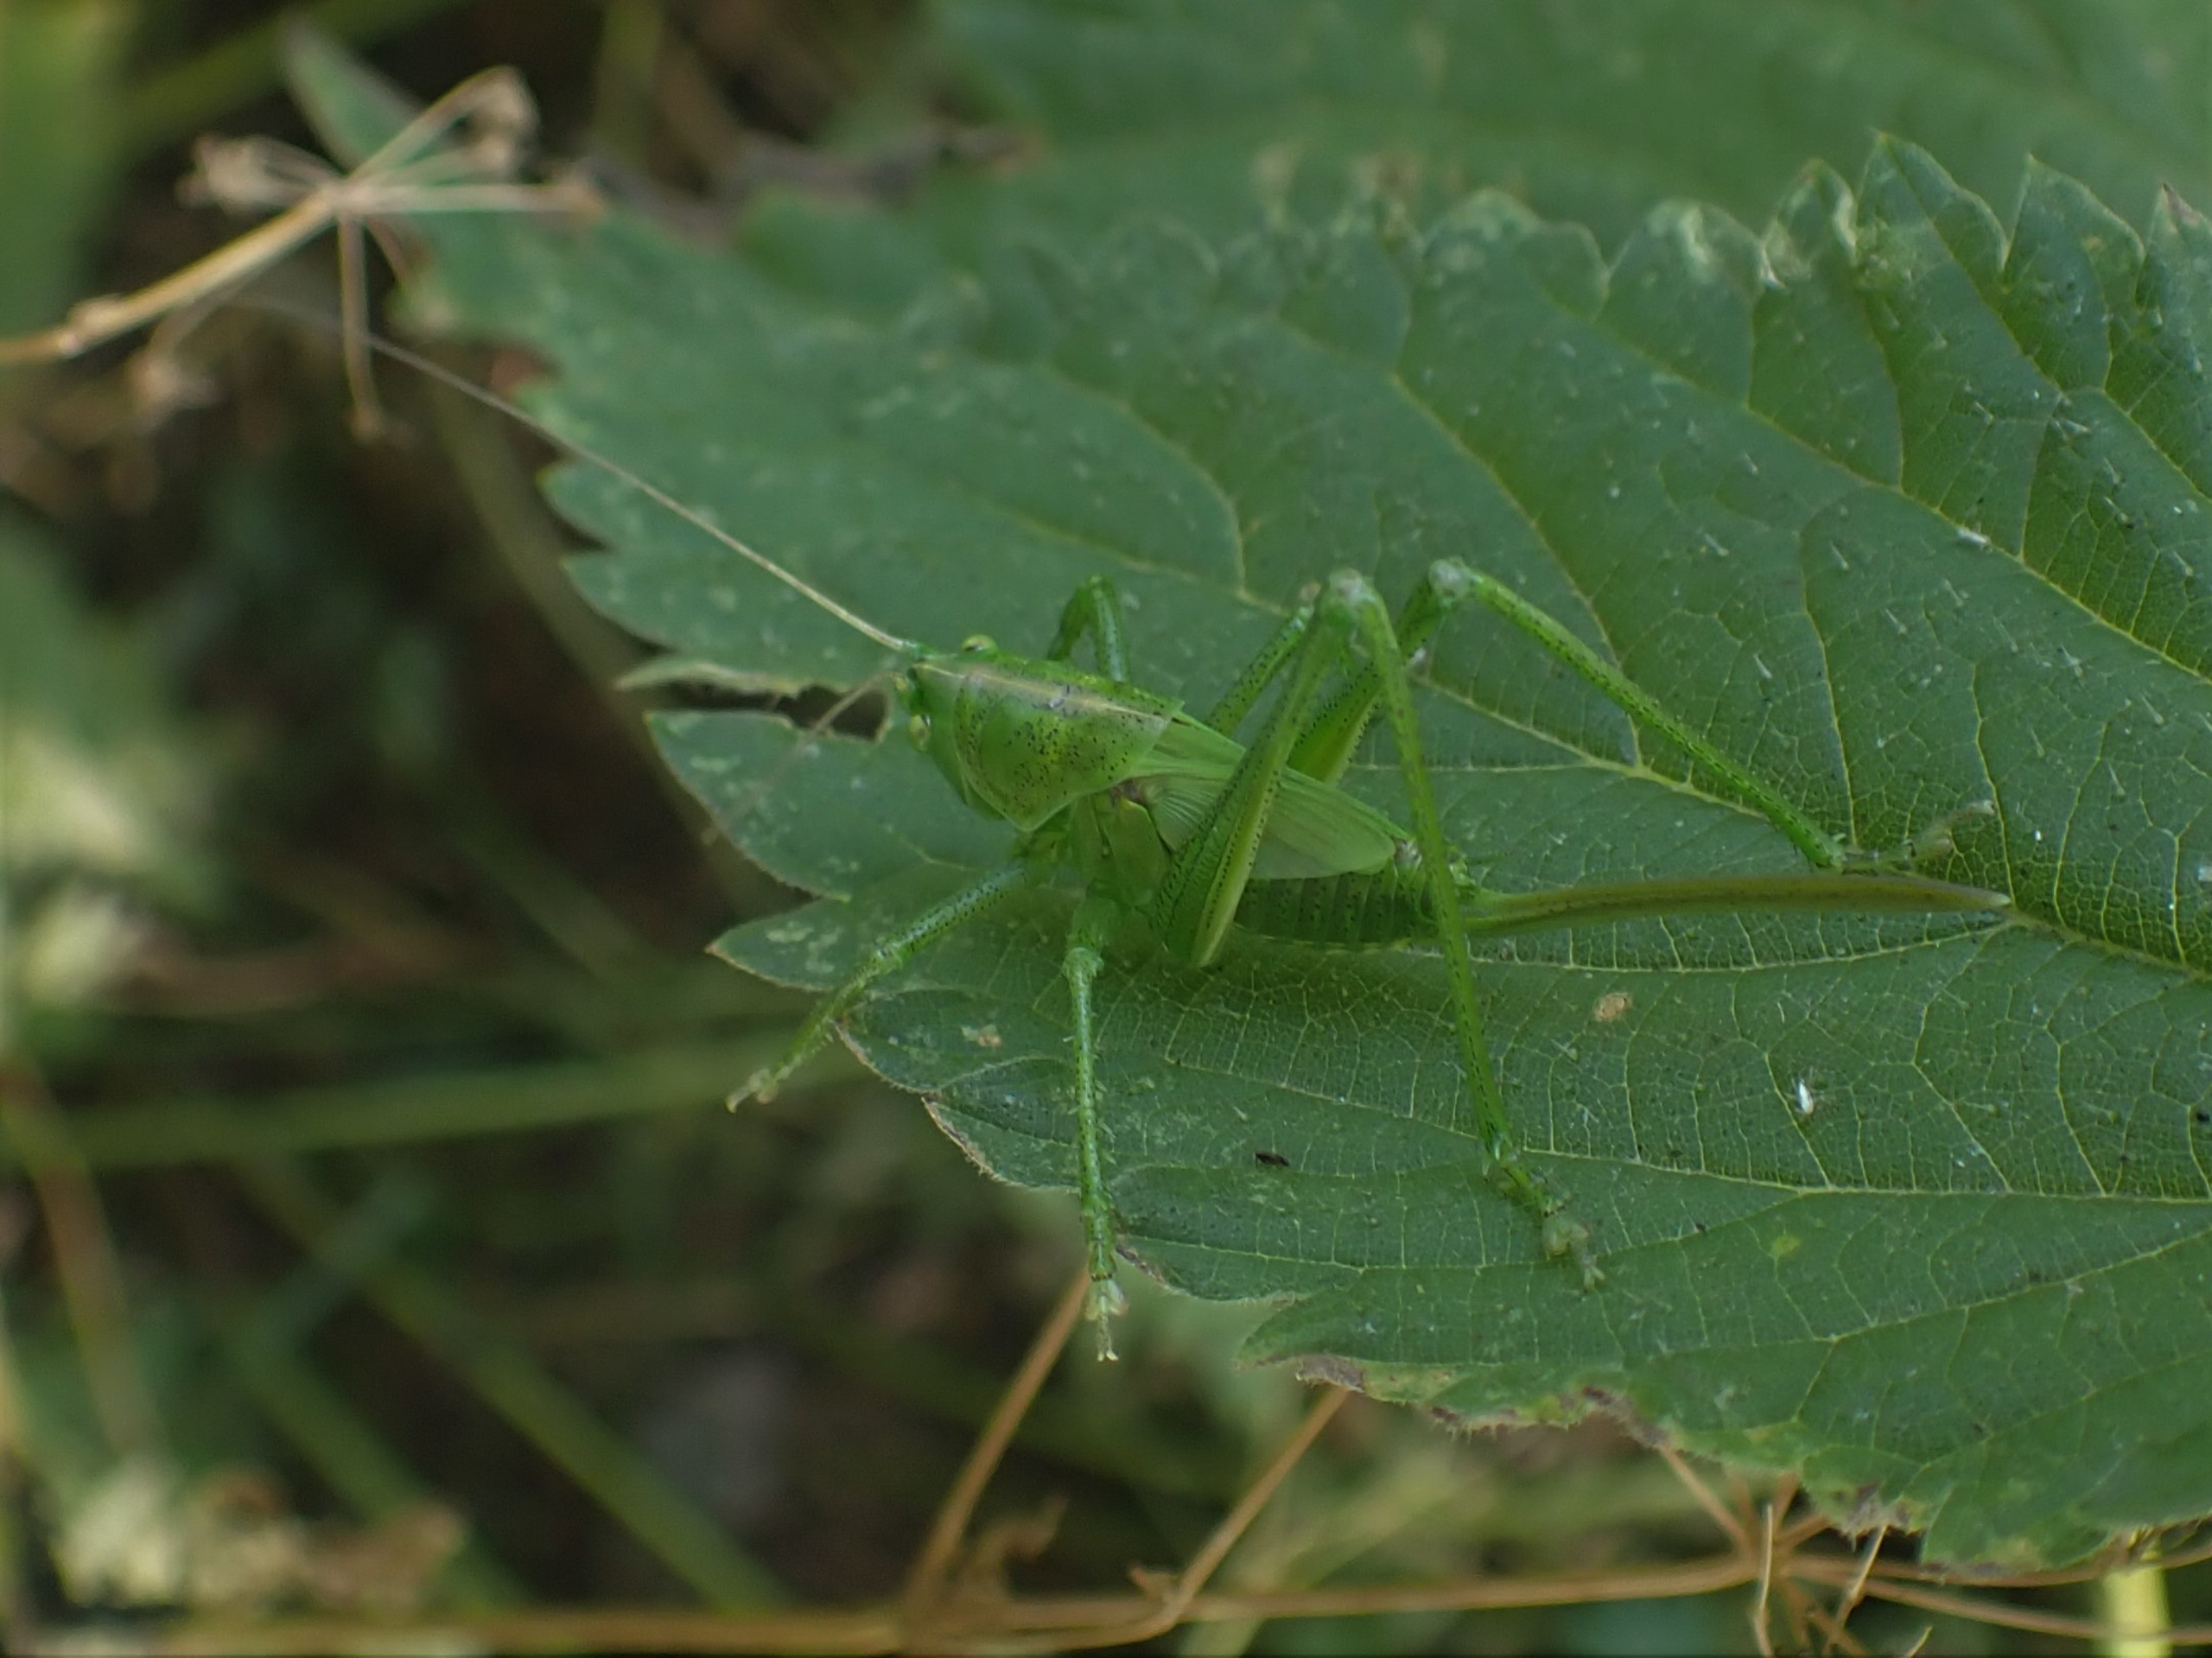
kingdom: Animalia
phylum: Arthropoda
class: Insecta
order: Orthoptera
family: Tettigoniidae
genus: Tettigonia
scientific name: Tettigonia viridissima
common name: Stor grøn løvgræshoppe
